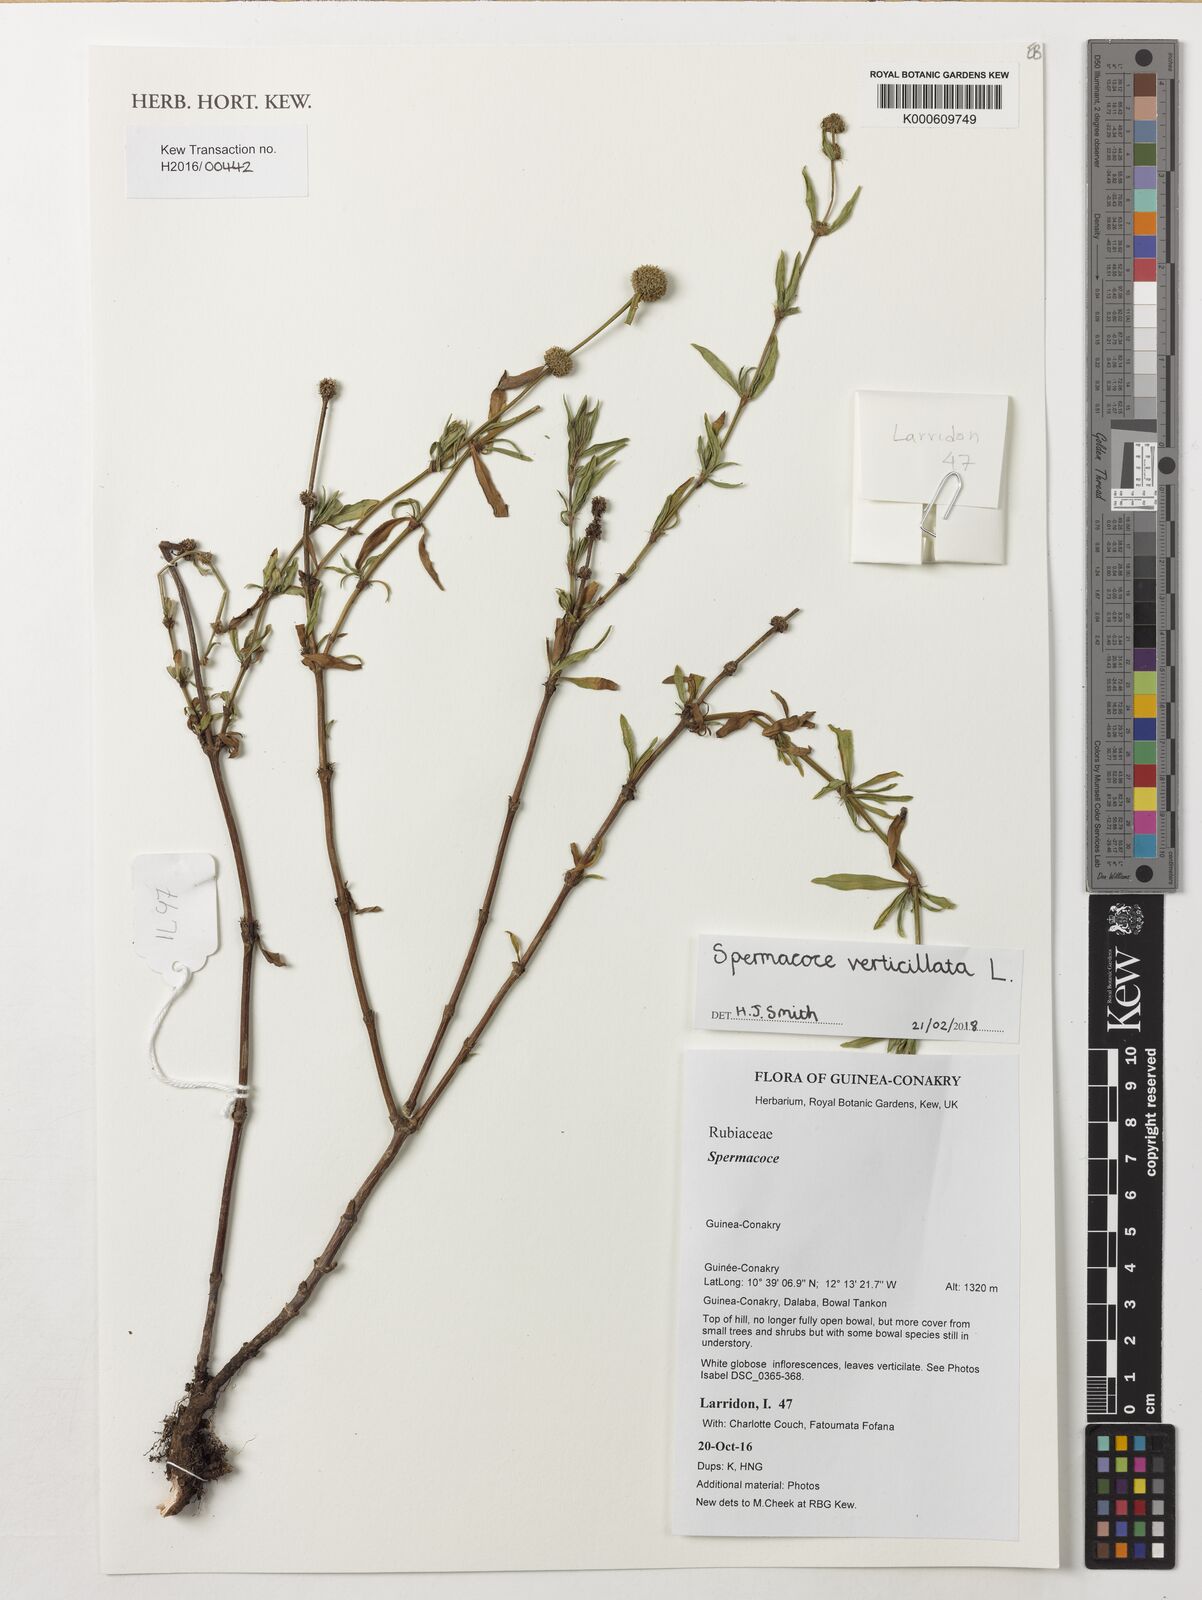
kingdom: Plantae
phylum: Tracheophyta
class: Magnoliopsida
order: Gentianales
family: Rubiaceae
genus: Spermacoce
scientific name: Spermacoce
